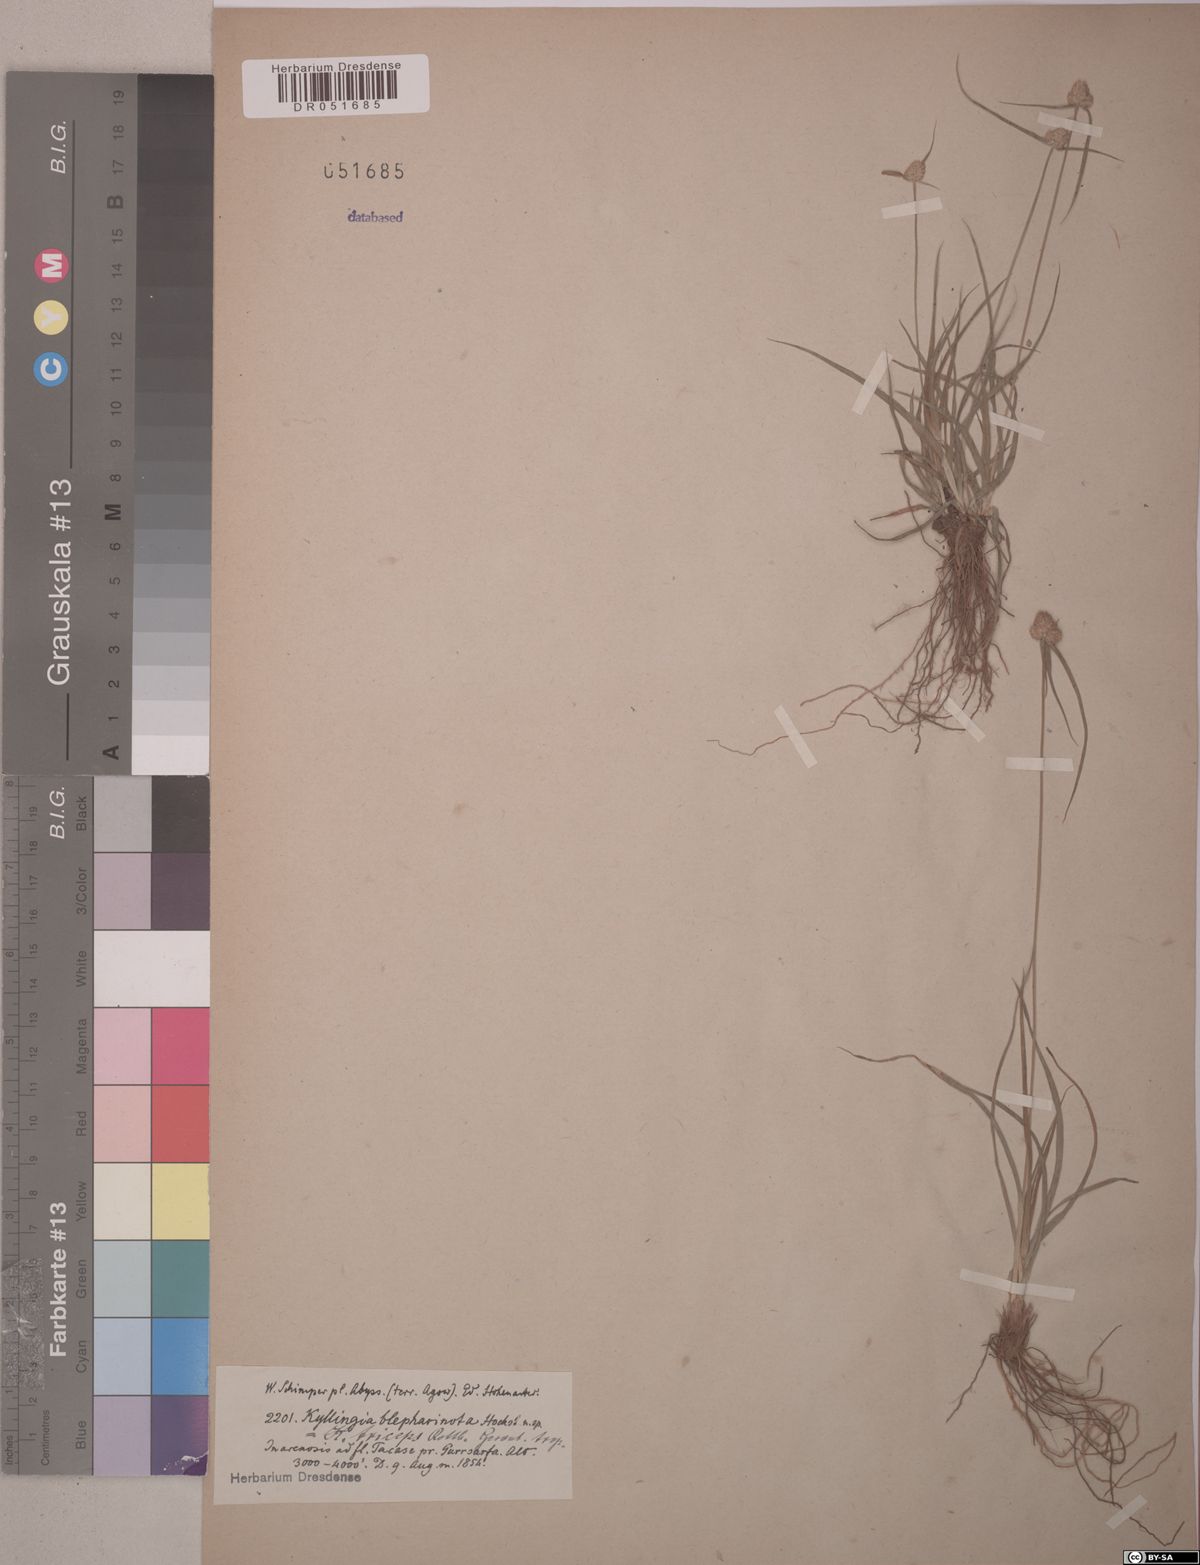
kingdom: Plantae
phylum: Tracheophyta
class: Liliopsida
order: Poales
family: Cyperaceae
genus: Cyperus
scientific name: Cyperus hortensis
